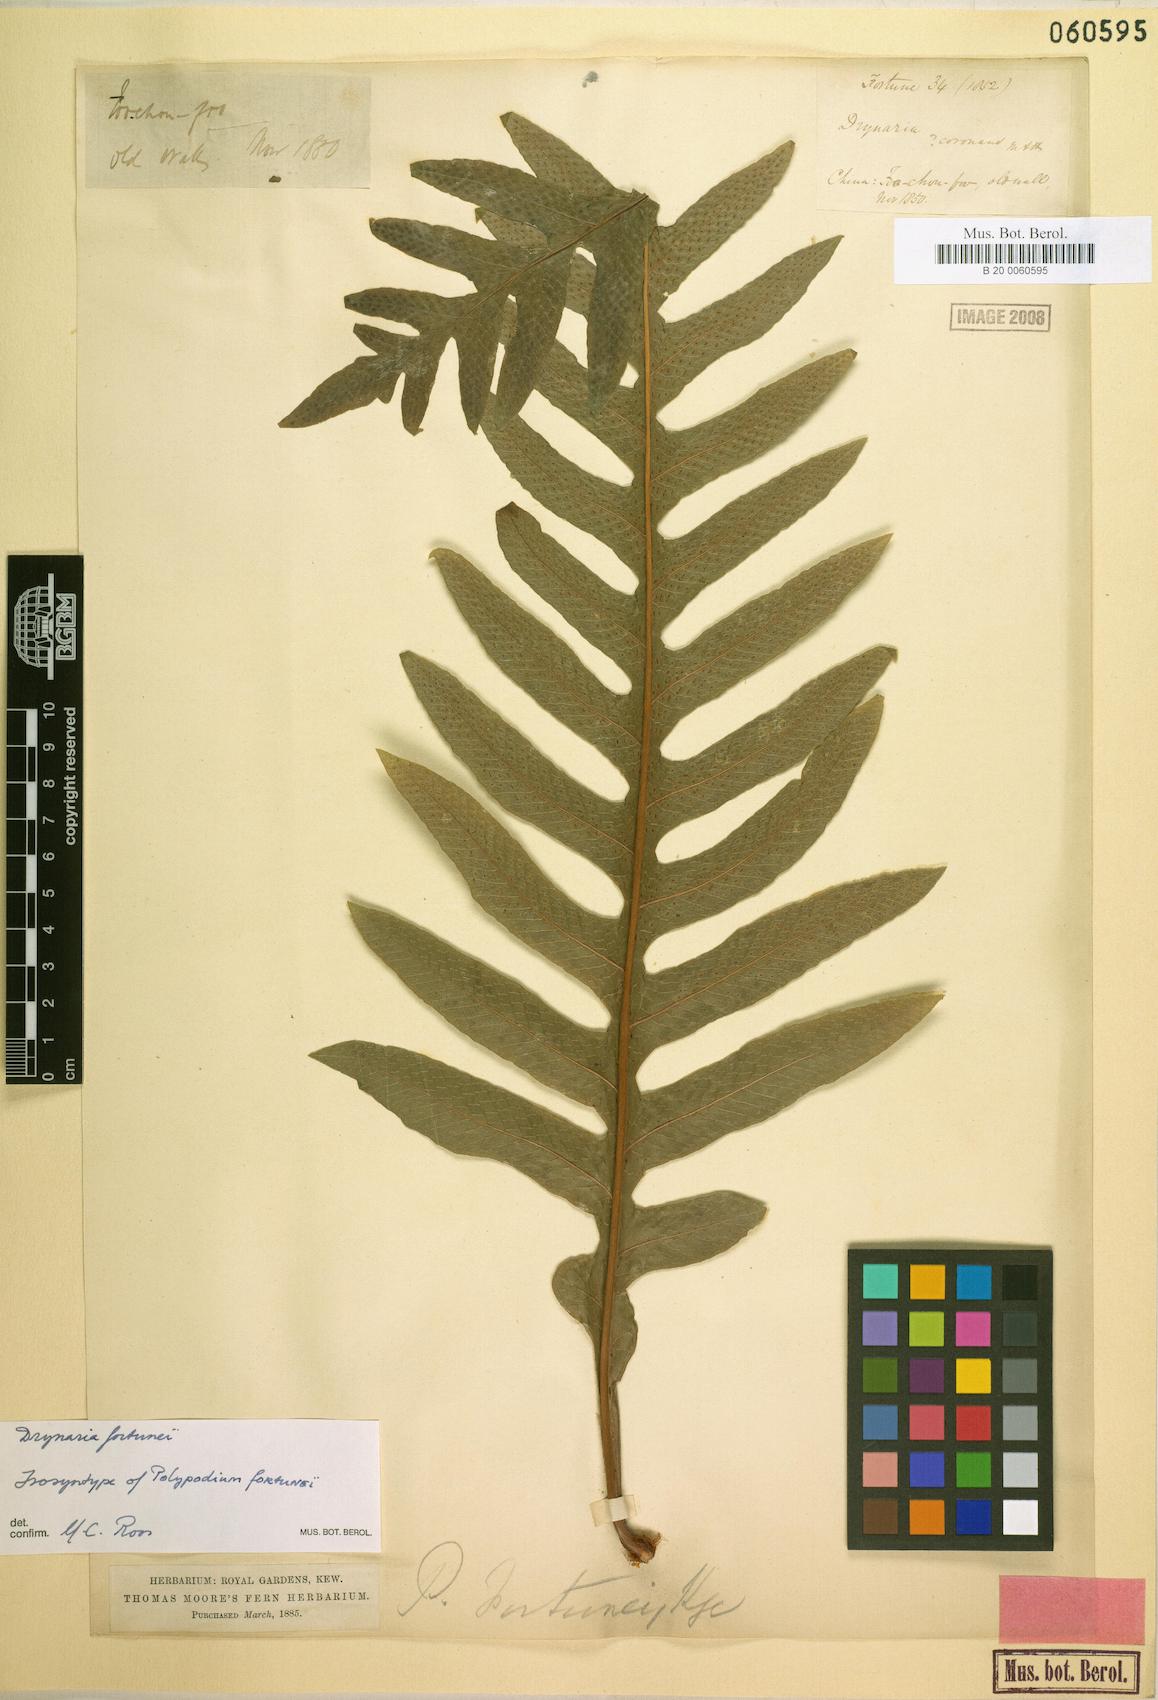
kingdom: Plantae
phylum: Tracheophyta
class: Polypodiopsida
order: Polypodiales
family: Polypodiaceae
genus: Drynaria
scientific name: Drynaria roosii
